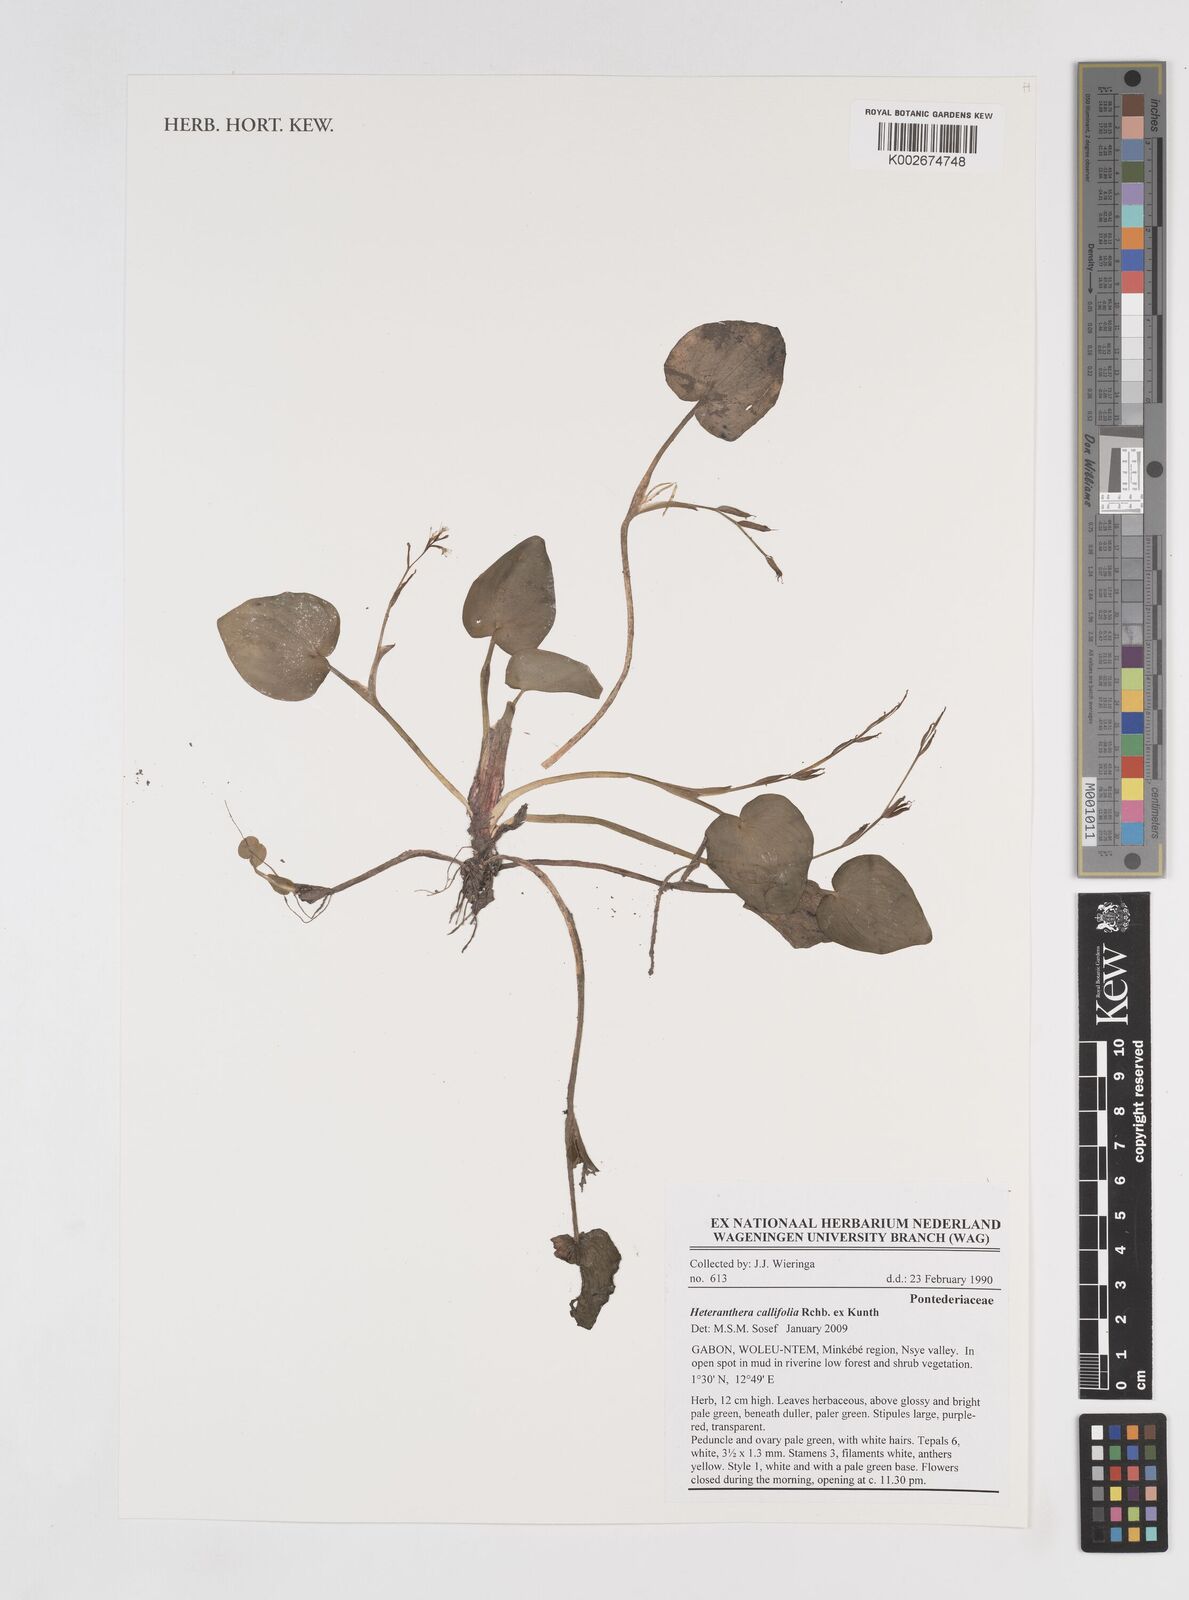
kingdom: Plantae
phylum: Tracheophyta
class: Liliopsida
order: Commelinales
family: Pontederiaceae
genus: Heteranthera
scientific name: Heteranthera callifolia
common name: Mud plantain
